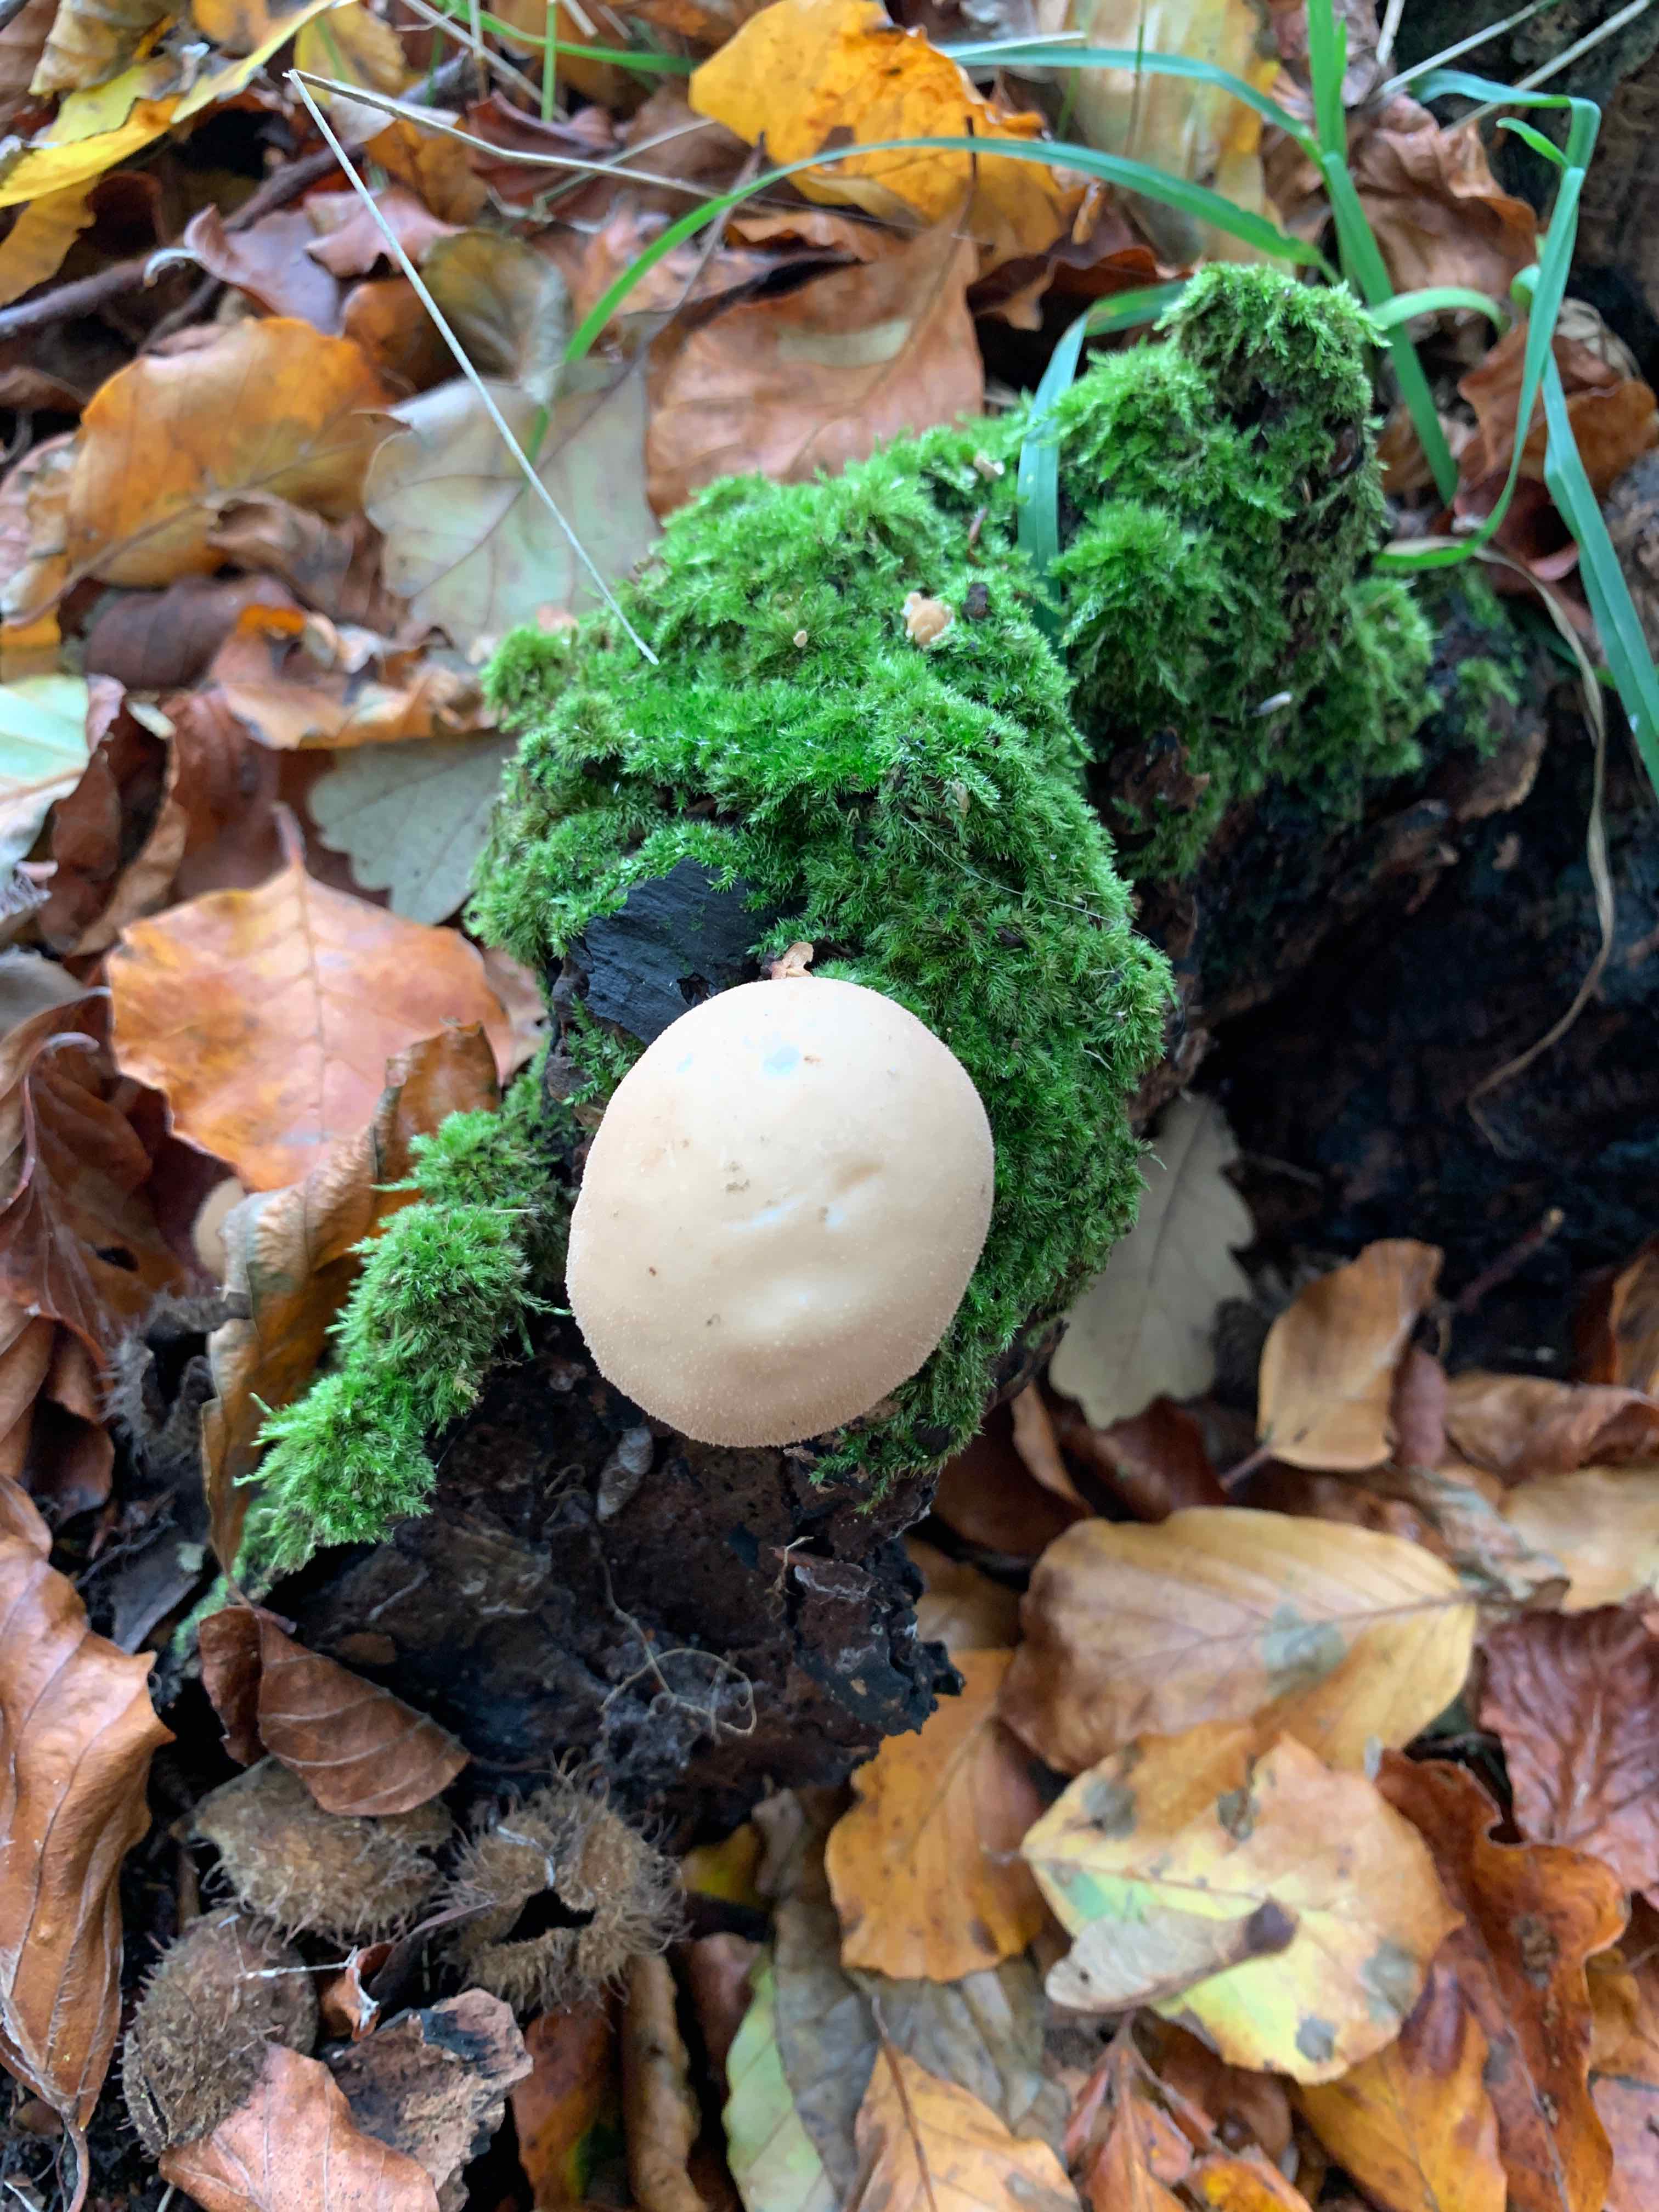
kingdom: Fungi
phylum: Basidiomycota
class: Agaricomycetes
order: Agaricales
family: Lycoperdaceae
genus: Apioperdon
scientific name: Apioperdon pyriforme
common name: pære-støvbold
